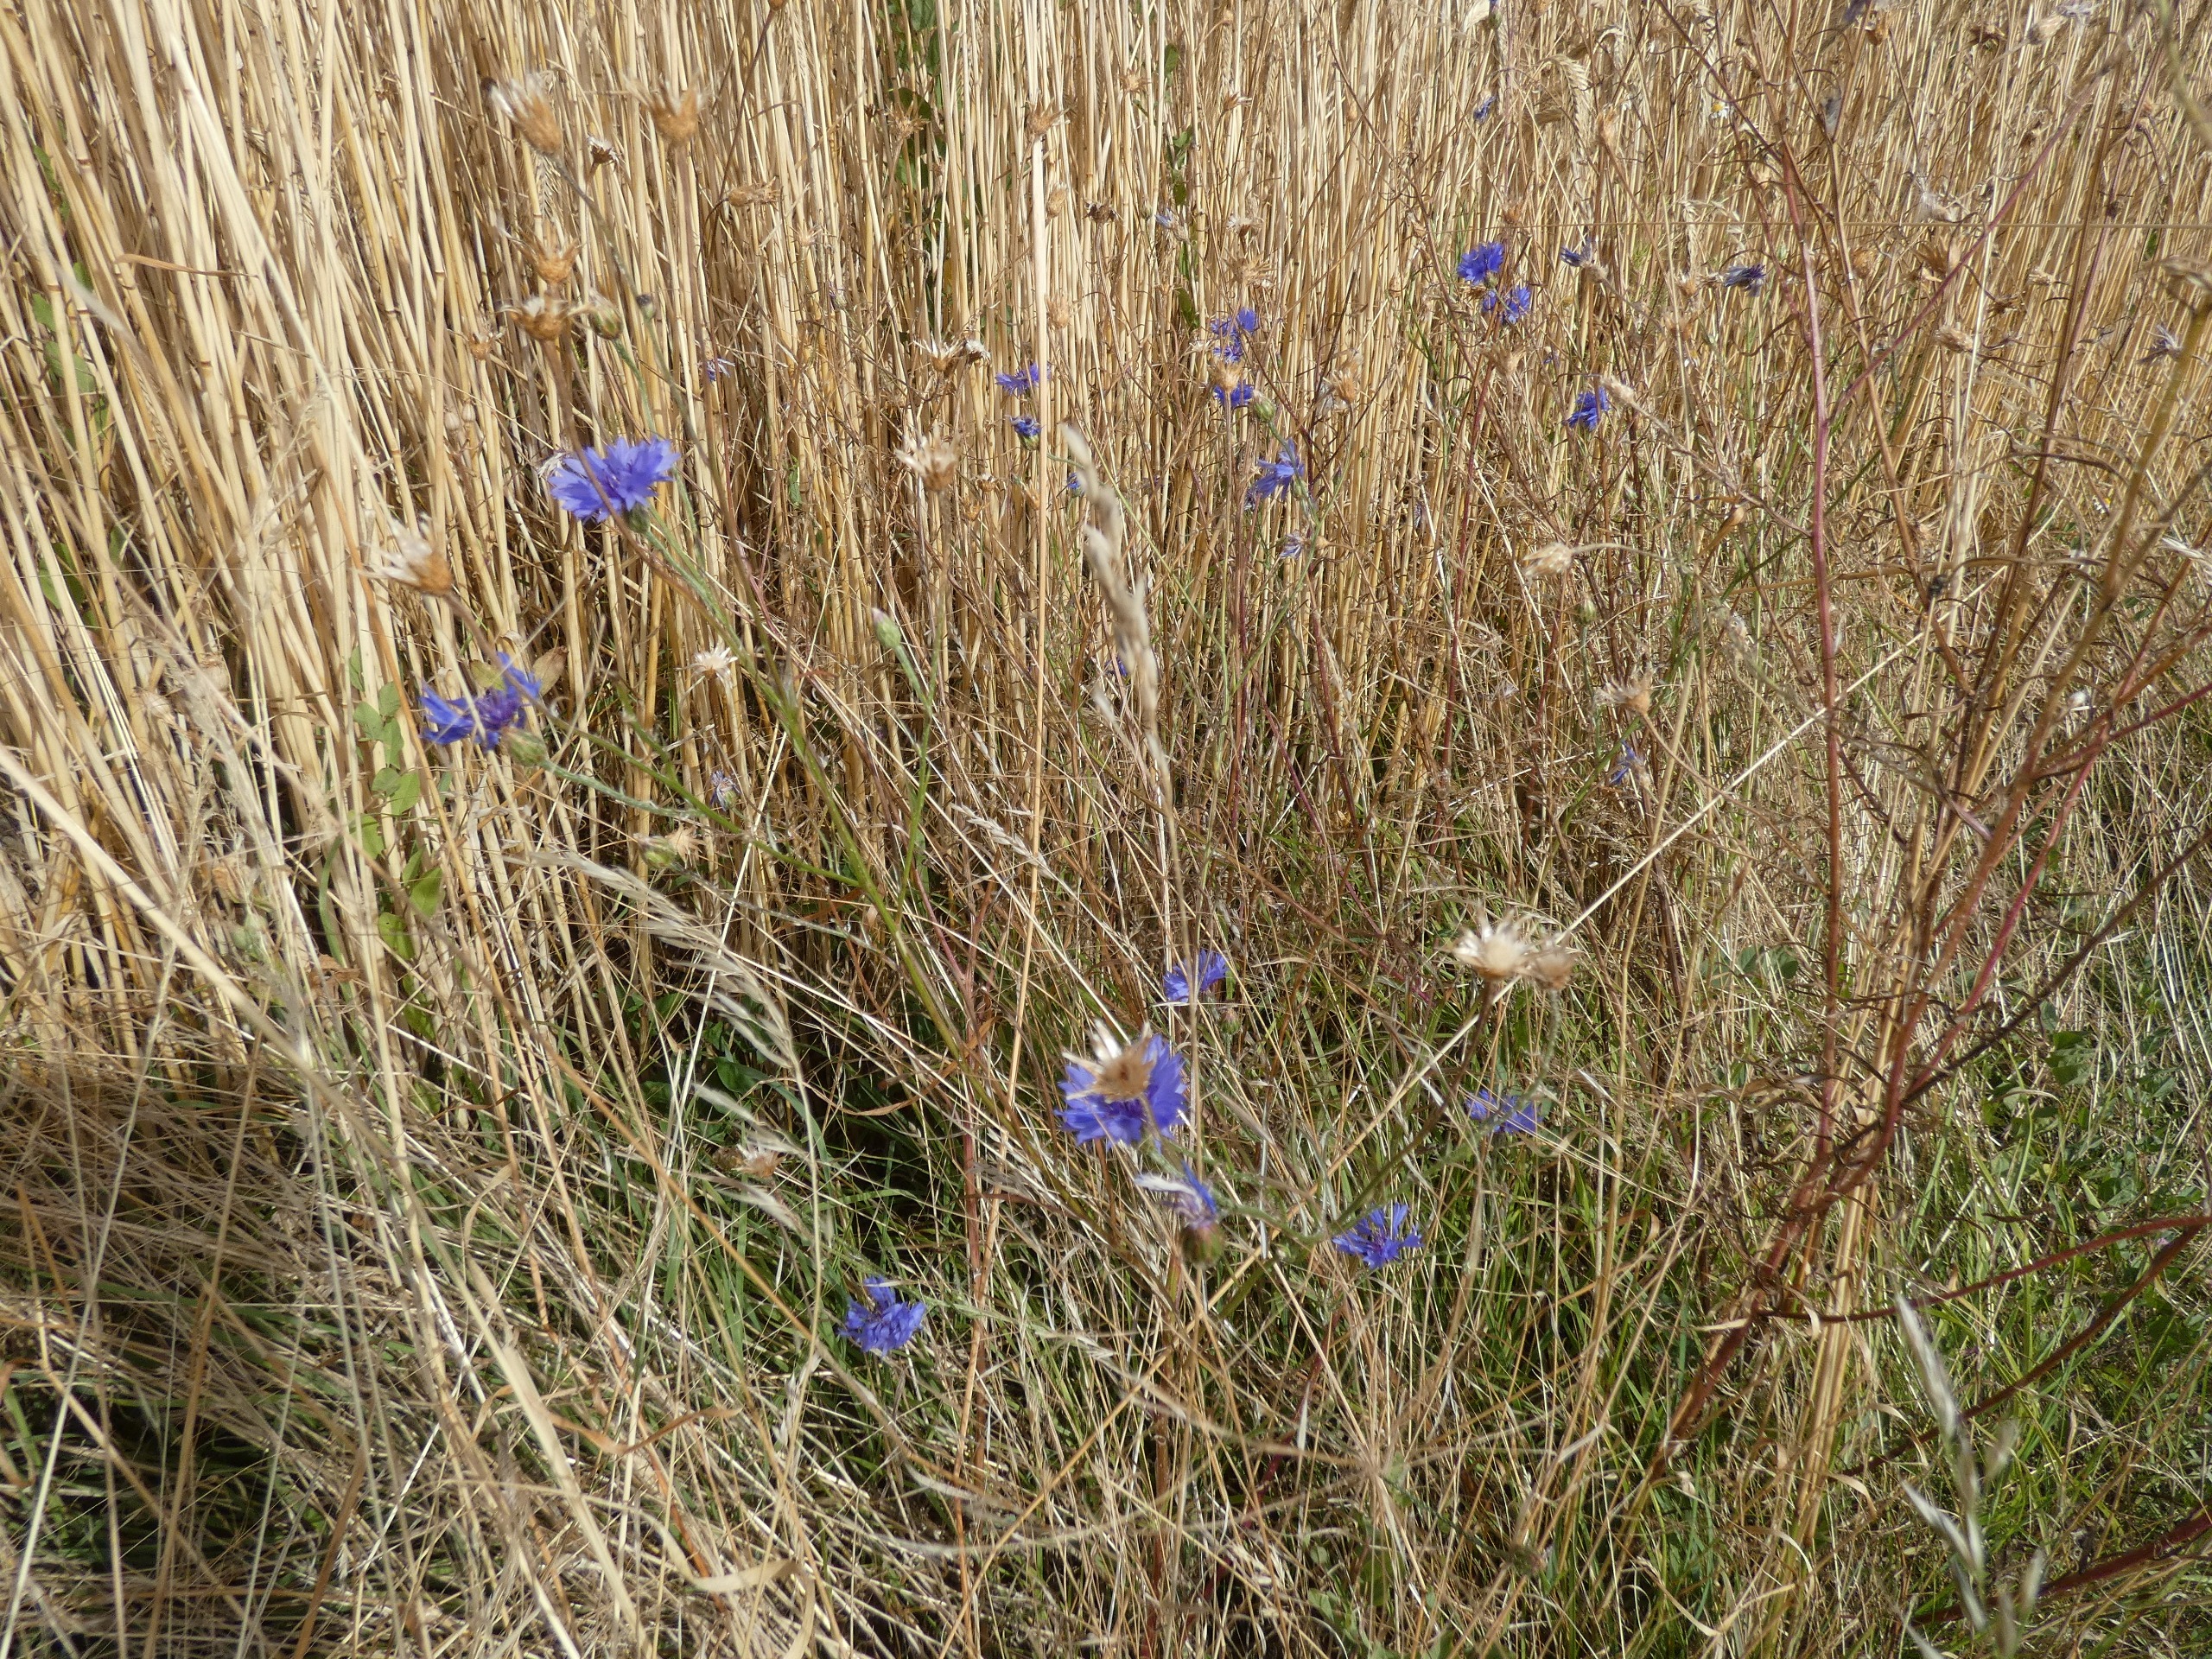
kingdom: Plantae
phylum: Tracheophyta
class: Magnoliopsida
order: Asterales
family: Asteraceae
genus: Centaurea
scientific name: Centaurea cyanus
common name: Kornblomst
